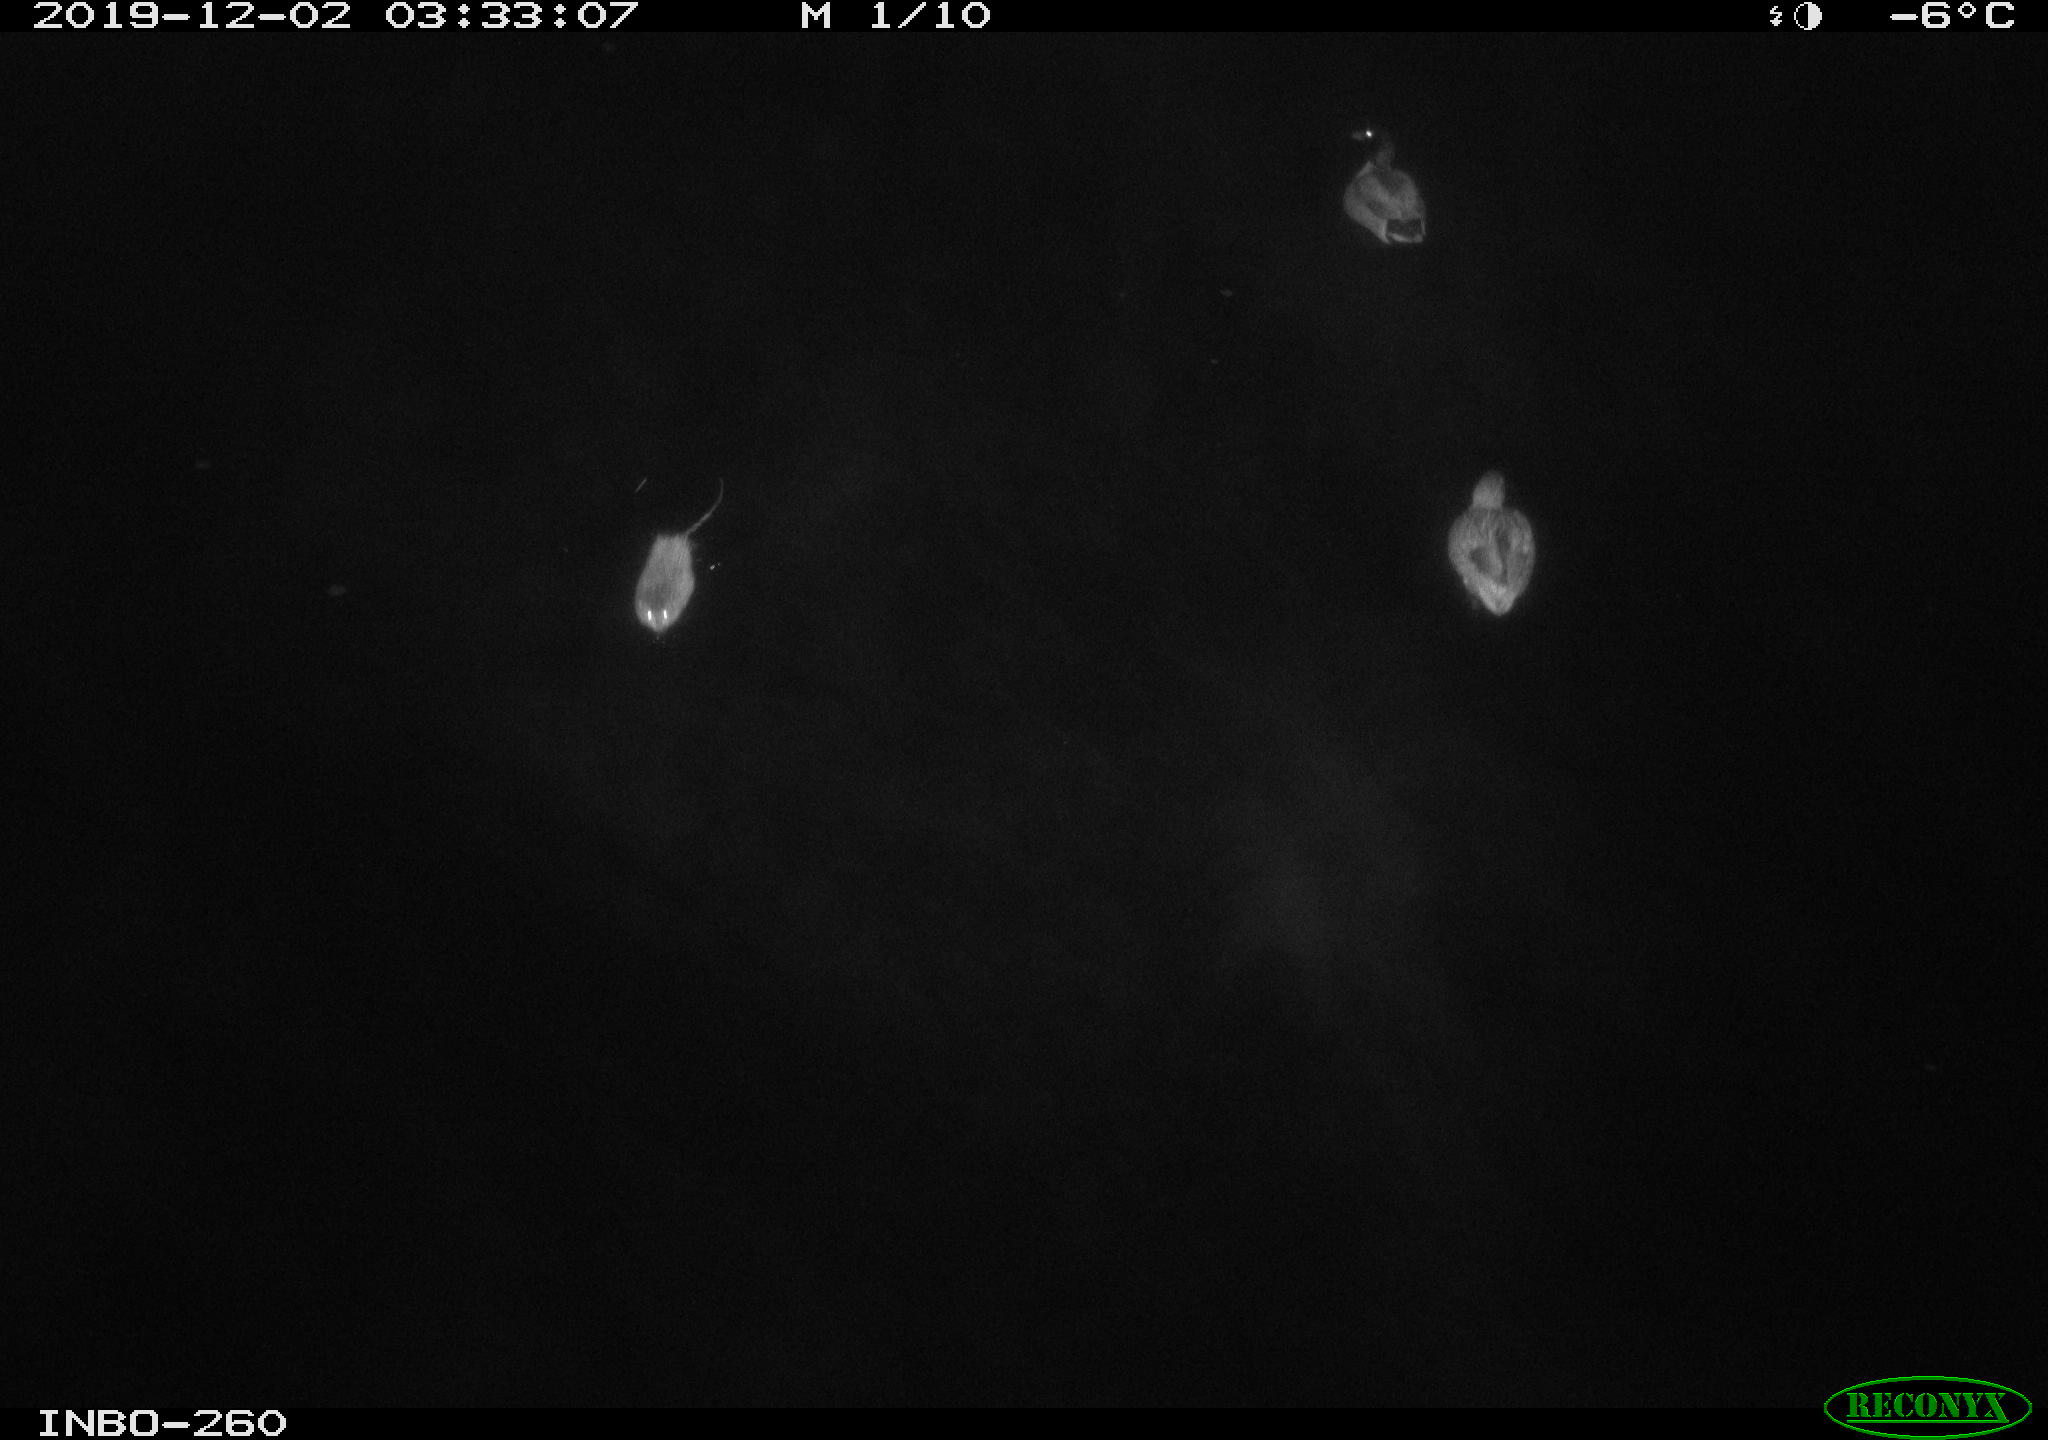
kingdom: Animalia
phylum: Chordata
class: Mammalia
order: Rodentia
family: Muridae
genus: Rattus
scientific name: Rattus norvegicus
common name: Brown rat
